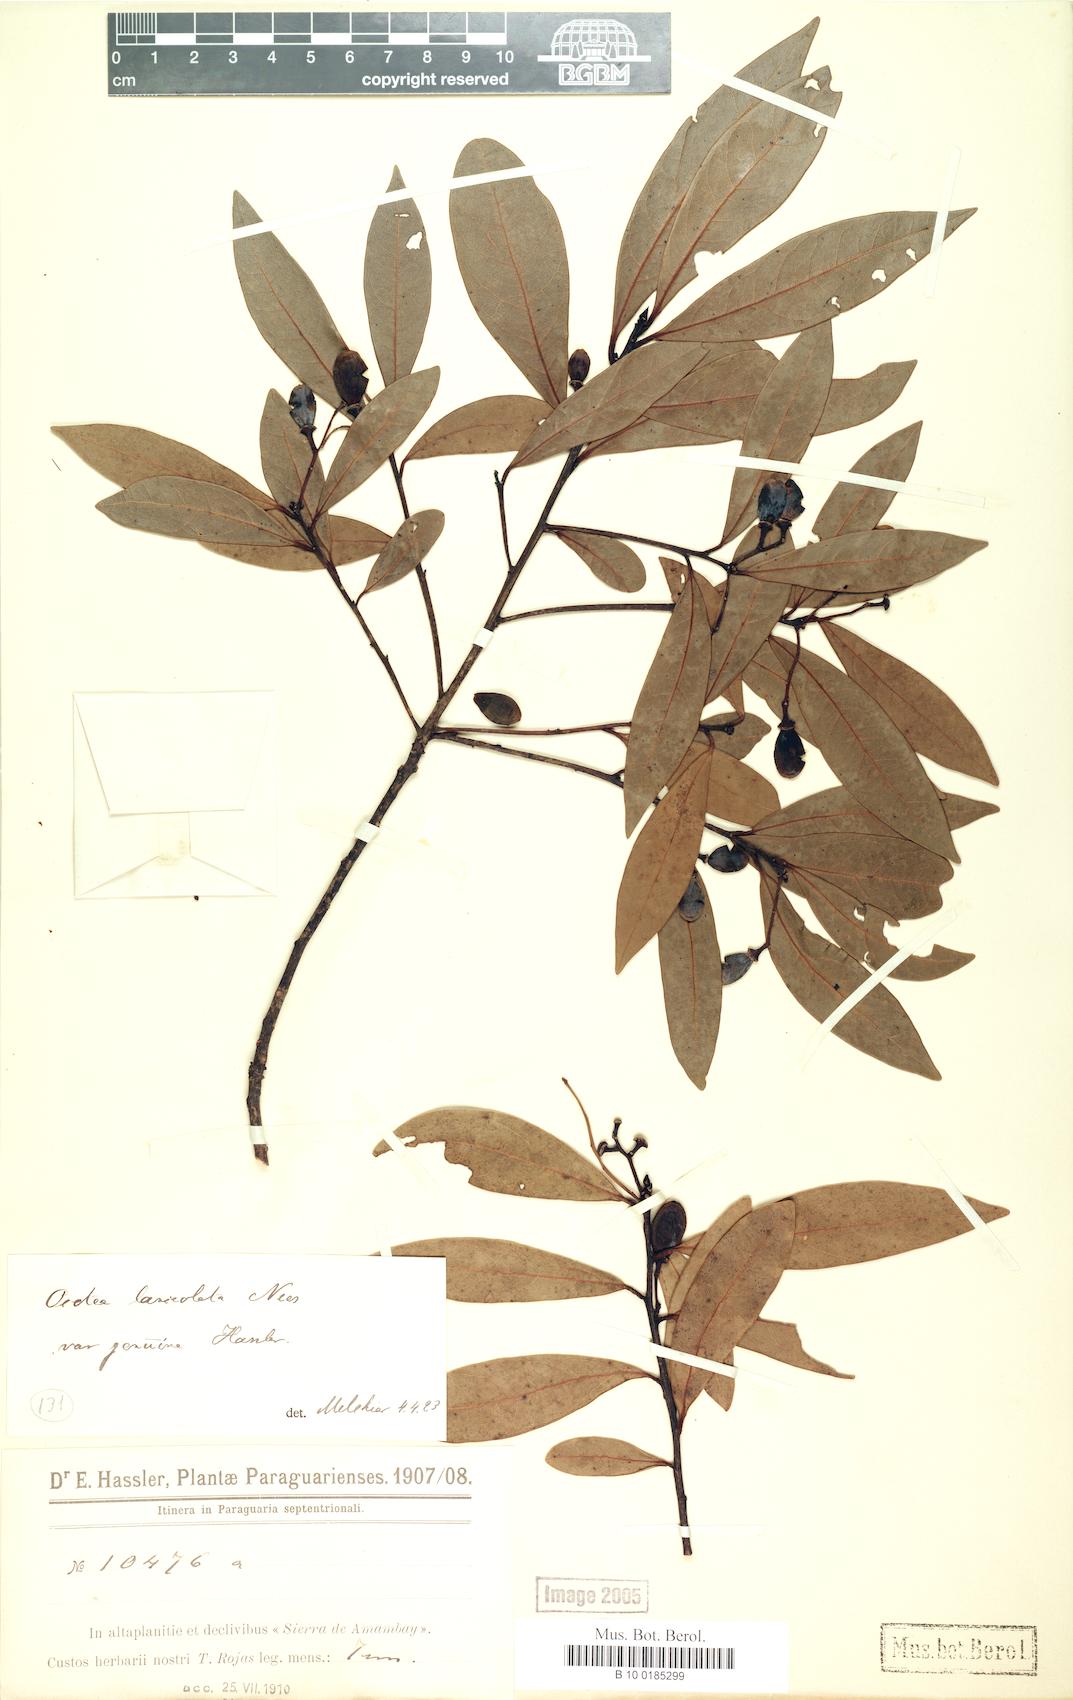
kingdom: Plantae
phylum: Tracheophyta
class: Magnoliopsida
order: Laurales
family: Lauraceae
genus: Ocotea
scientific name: Ocotea lancifolia
